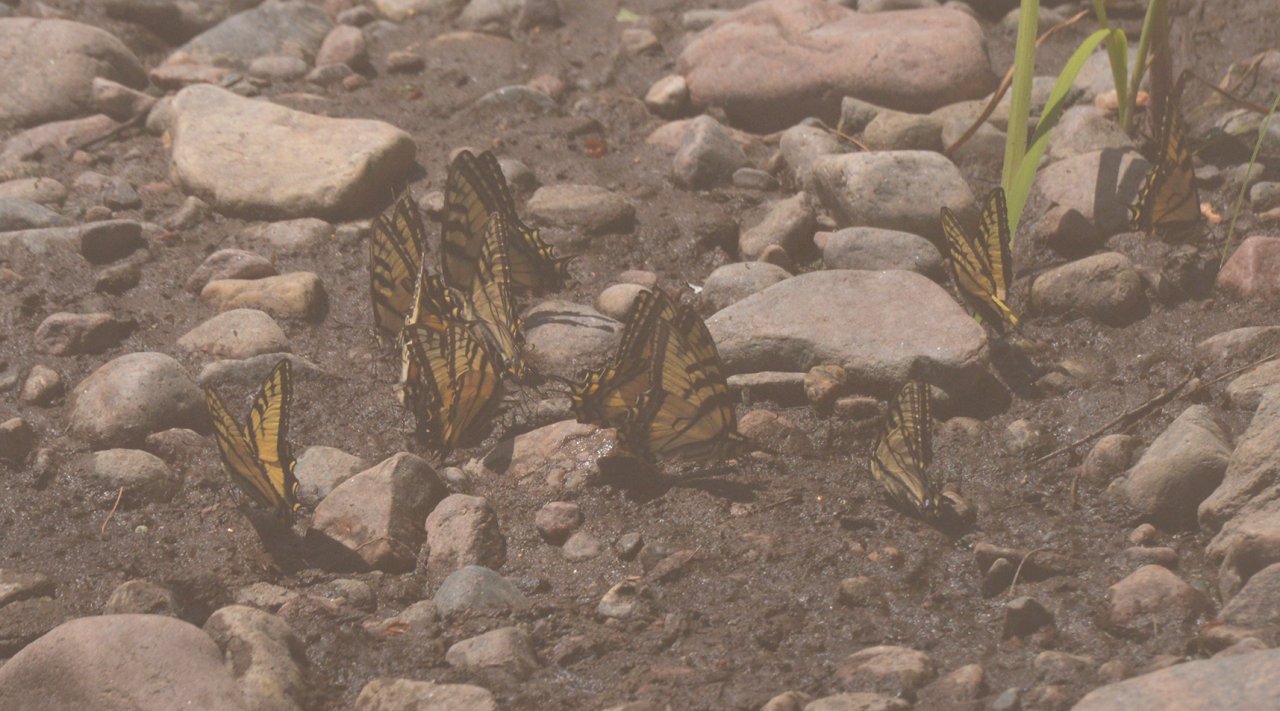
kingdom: Animalia
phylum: Arthropoda
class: Insecta
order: Lepidoptera
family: Papilionidae
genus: Pterourus
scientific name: Pterourus canadensis
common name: Canadian Tiger Swallowtail
